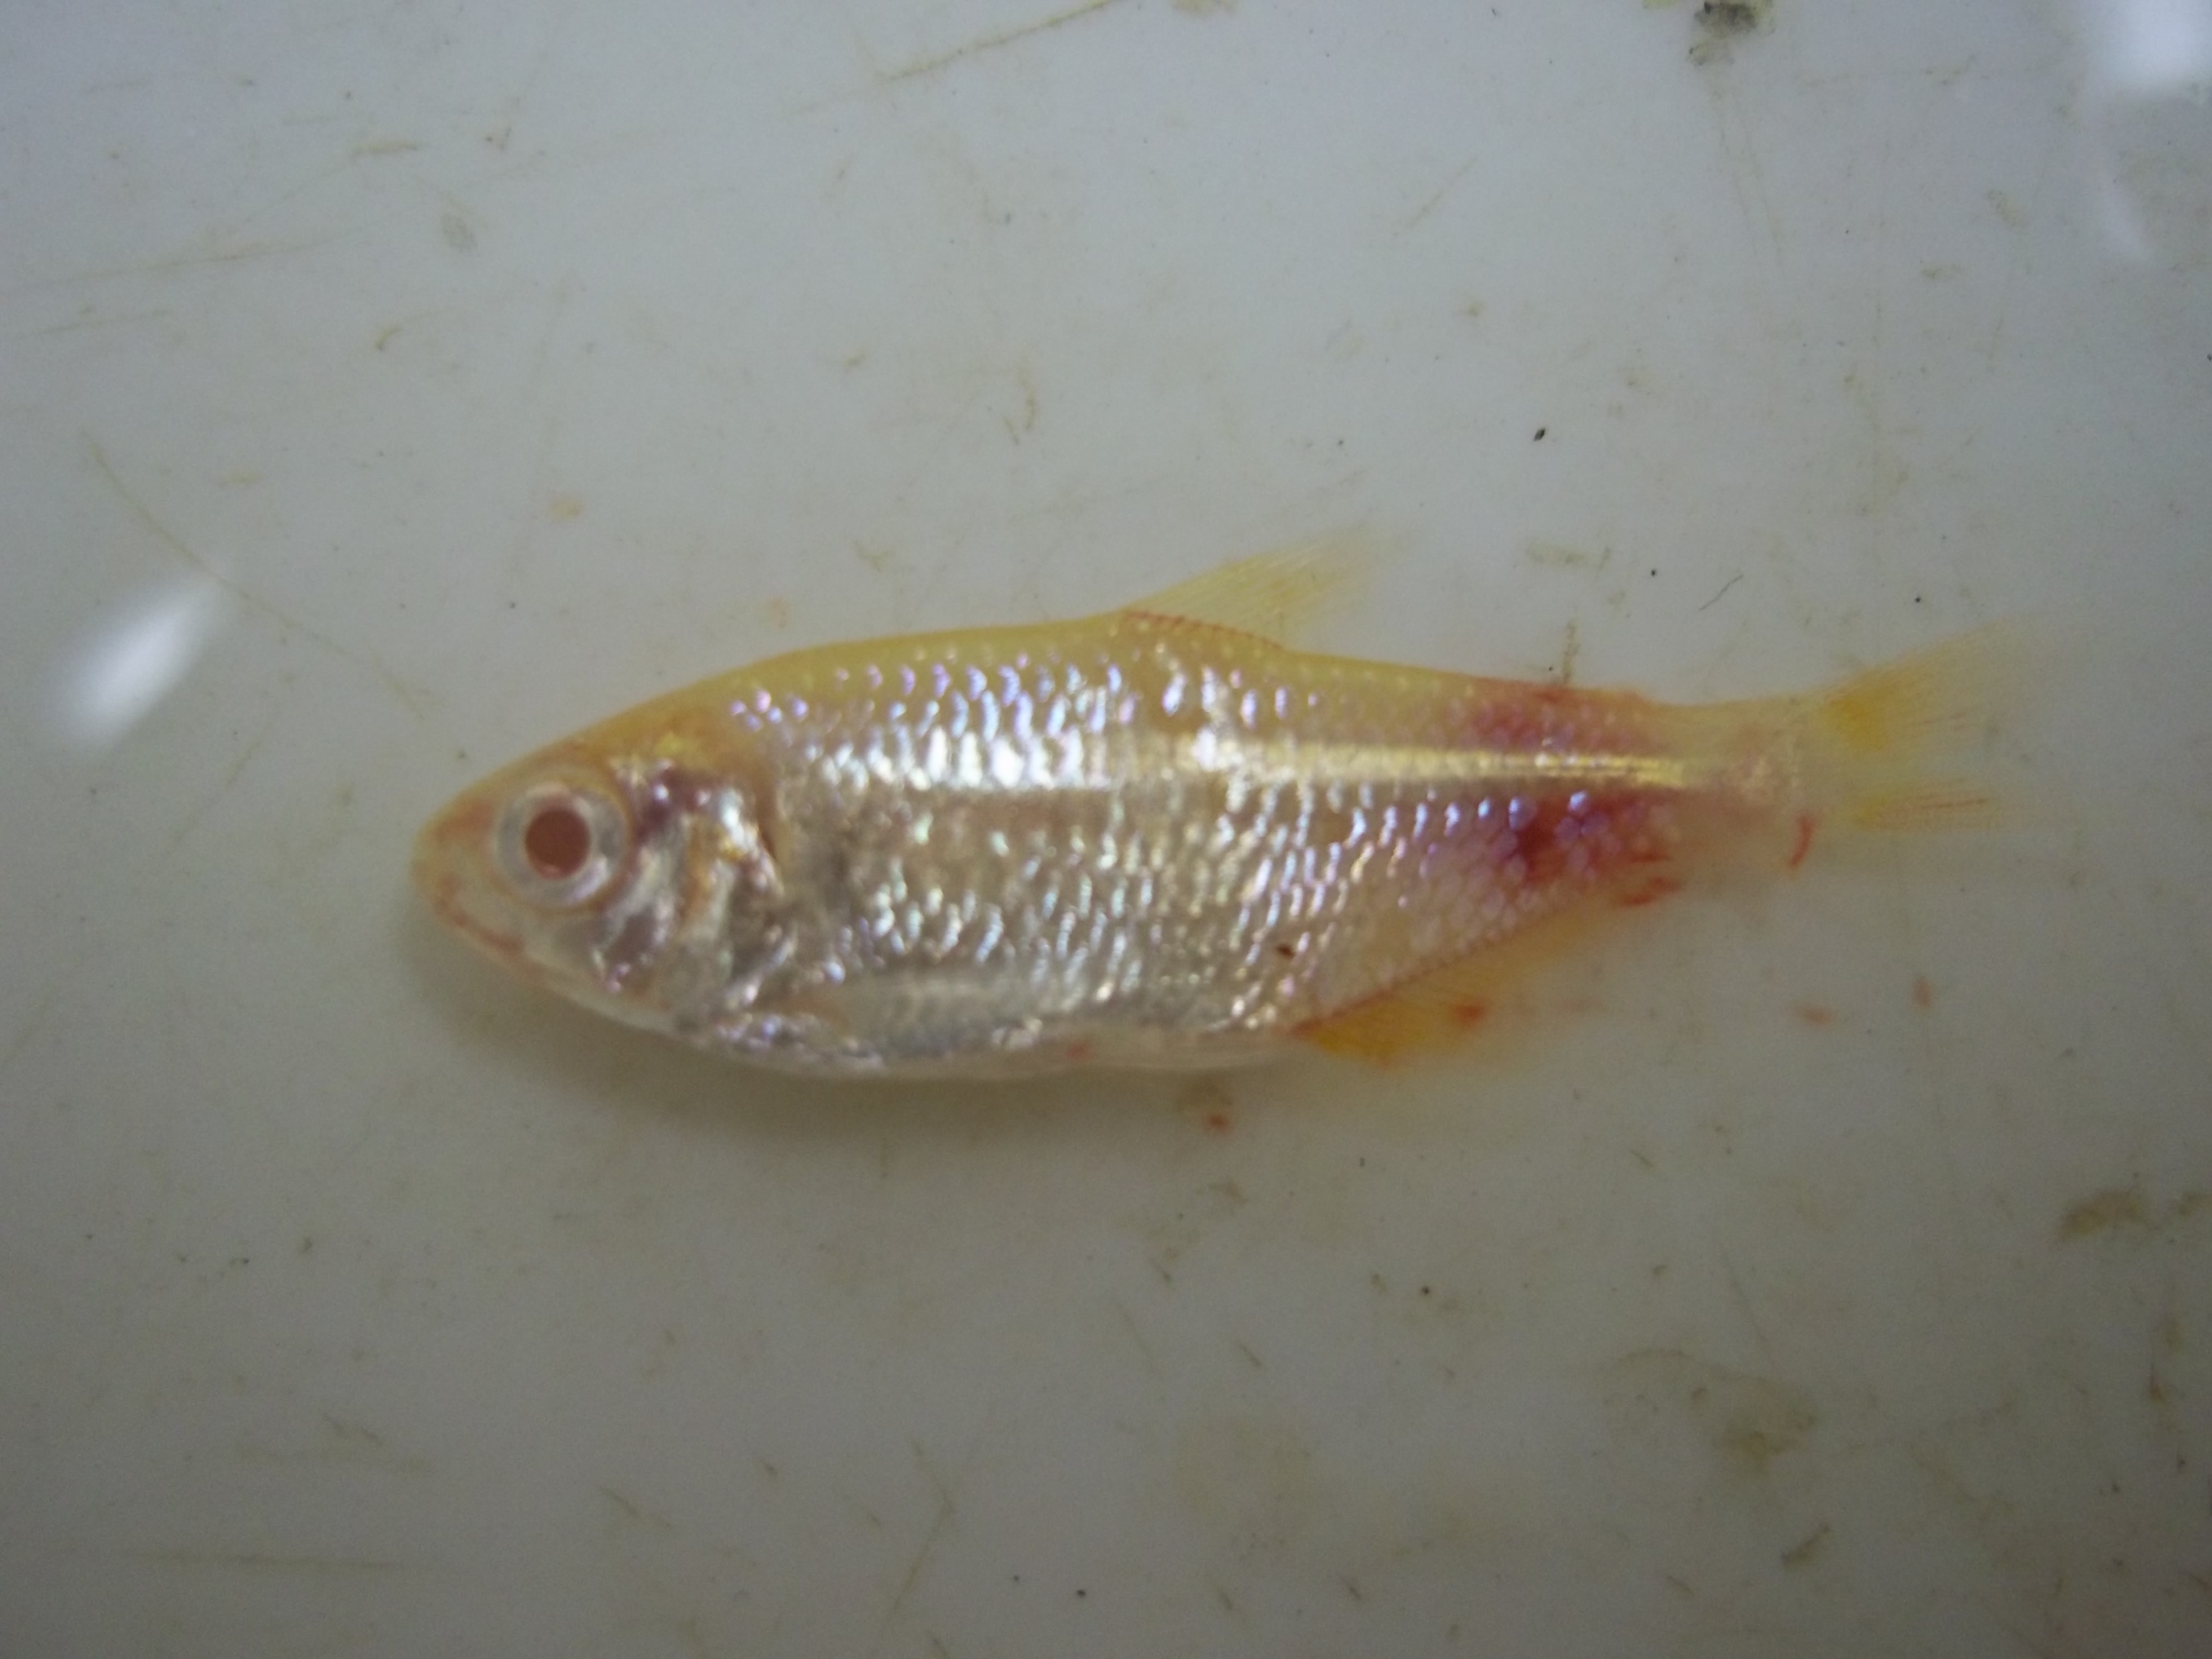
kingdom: Animalia
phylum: Chordata
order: Characiformes
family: Characidae
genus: Hyphessobrycon
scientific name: Hyphessobrycon flammeus
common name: Flame tetra
